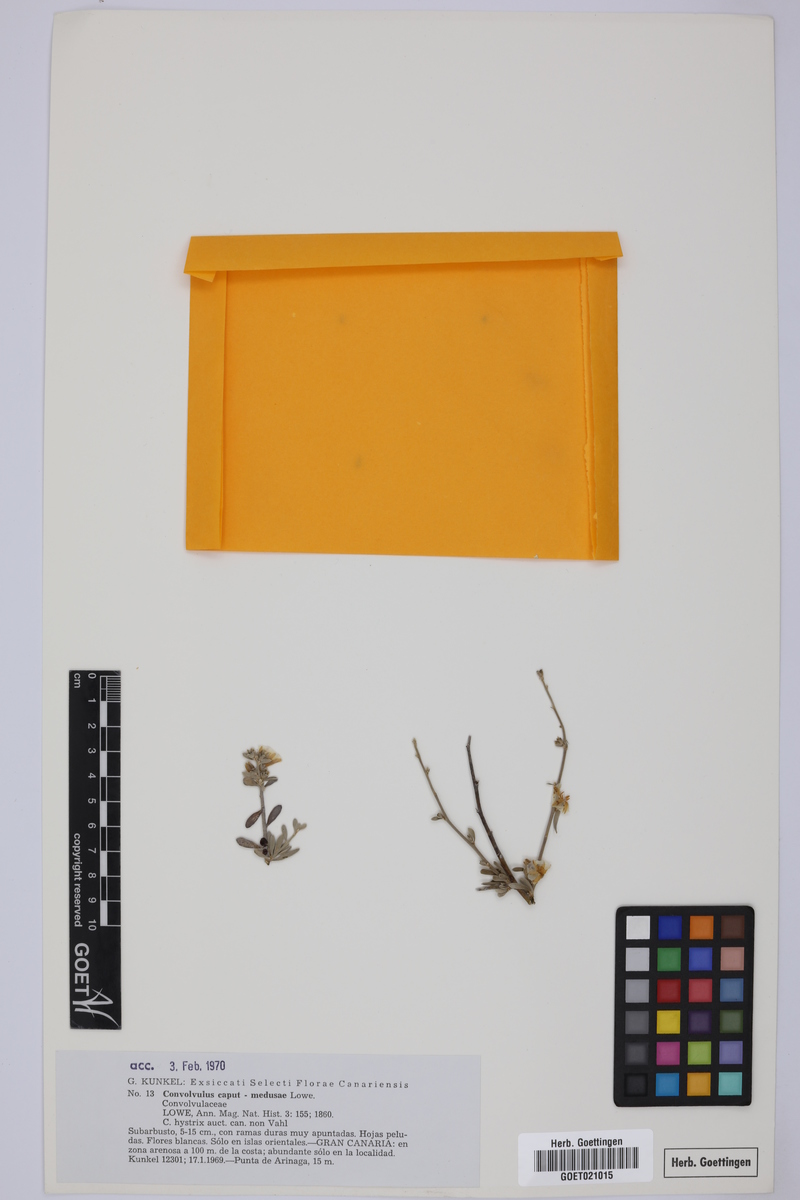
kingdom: Plantae
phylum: Tracheophyta
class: Magnoliopsida
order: Solanales
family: Convolvulaceae
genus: Convolvulus
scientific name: Convolvulus caput-medusae
